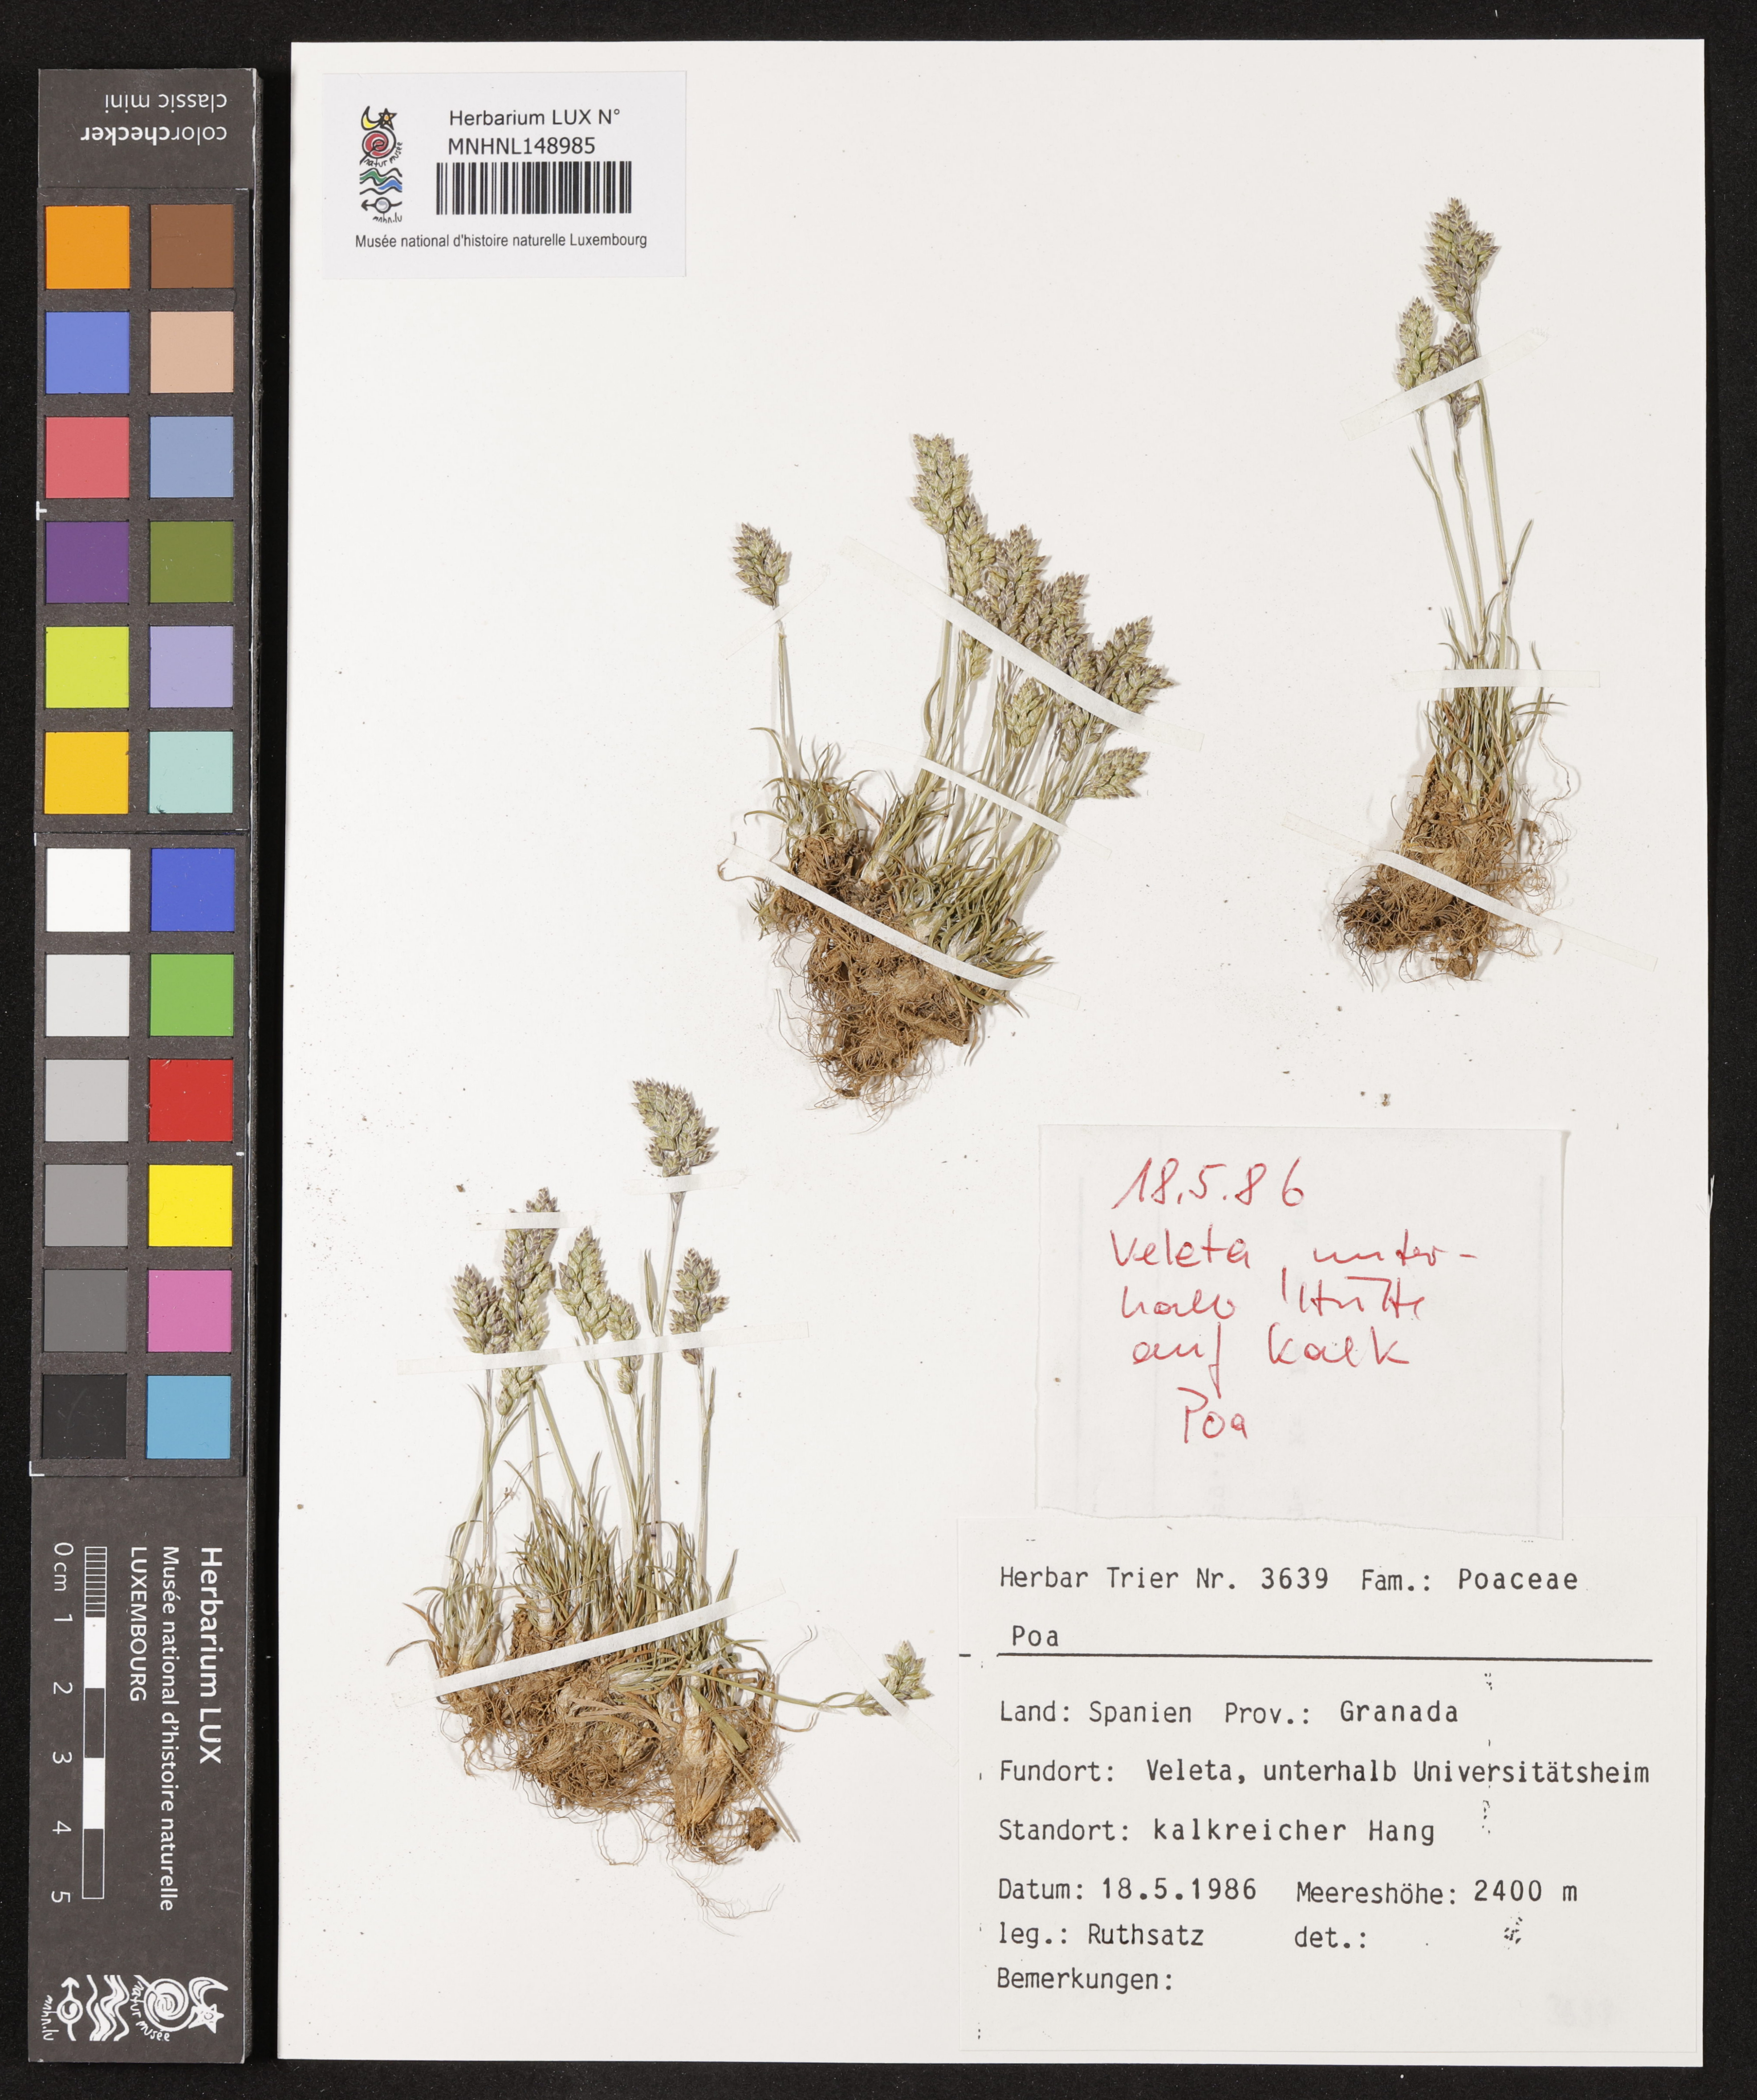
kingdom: Plantae
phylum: Tracheophyta
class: Liliopsida
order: Poales
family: Poaceae
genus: Poa
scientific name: Poa
